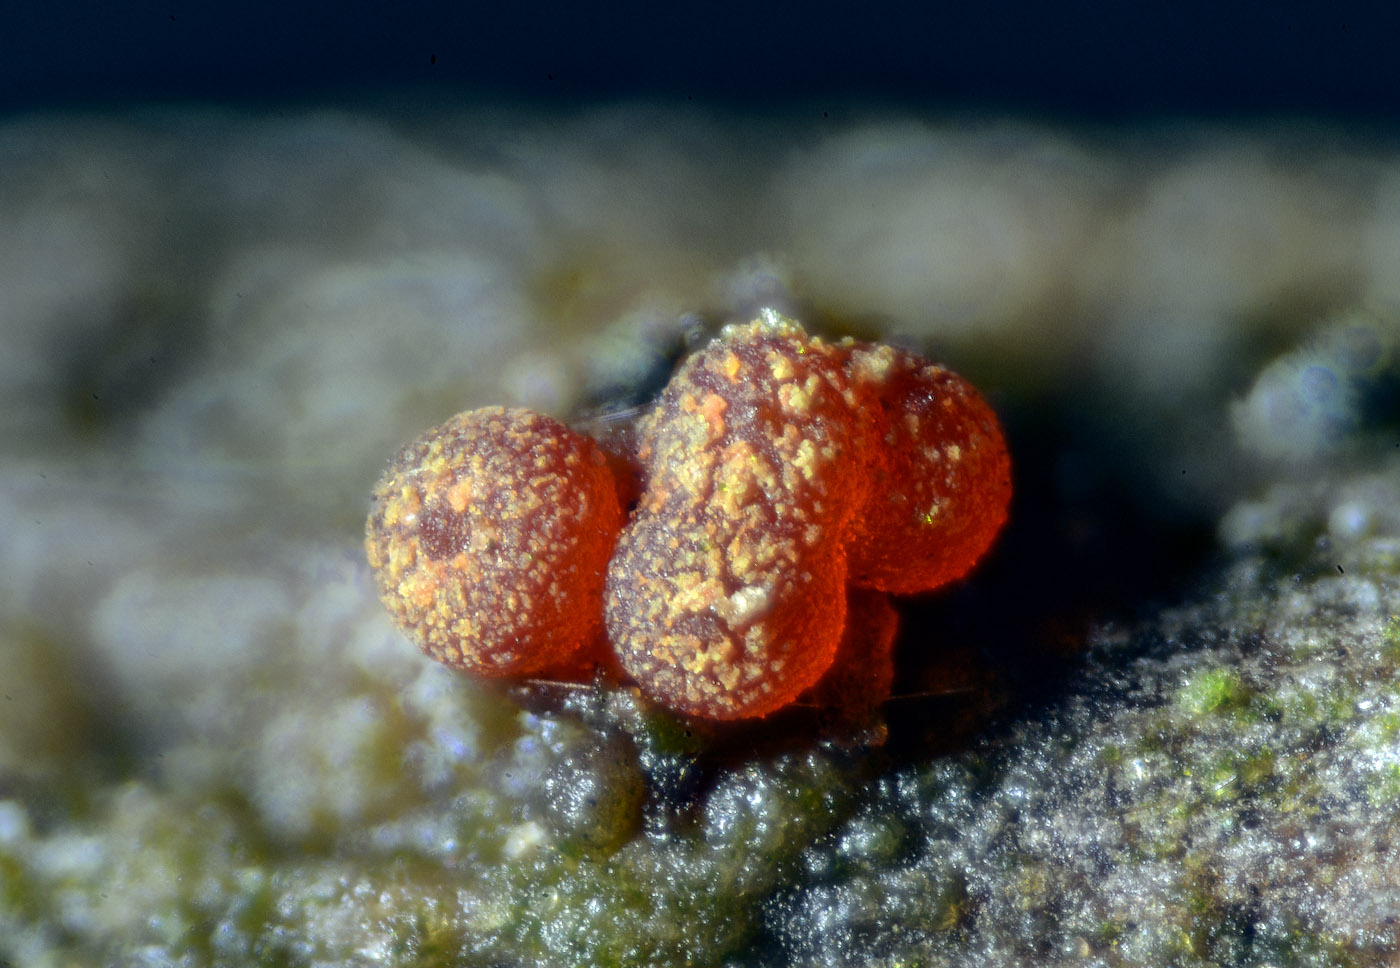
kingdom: Fungi
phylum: Ascomycota
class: Sordariomycetes
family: Thyridiaceae
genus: Thyronectria
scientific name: Thyronectria rubicarpa
